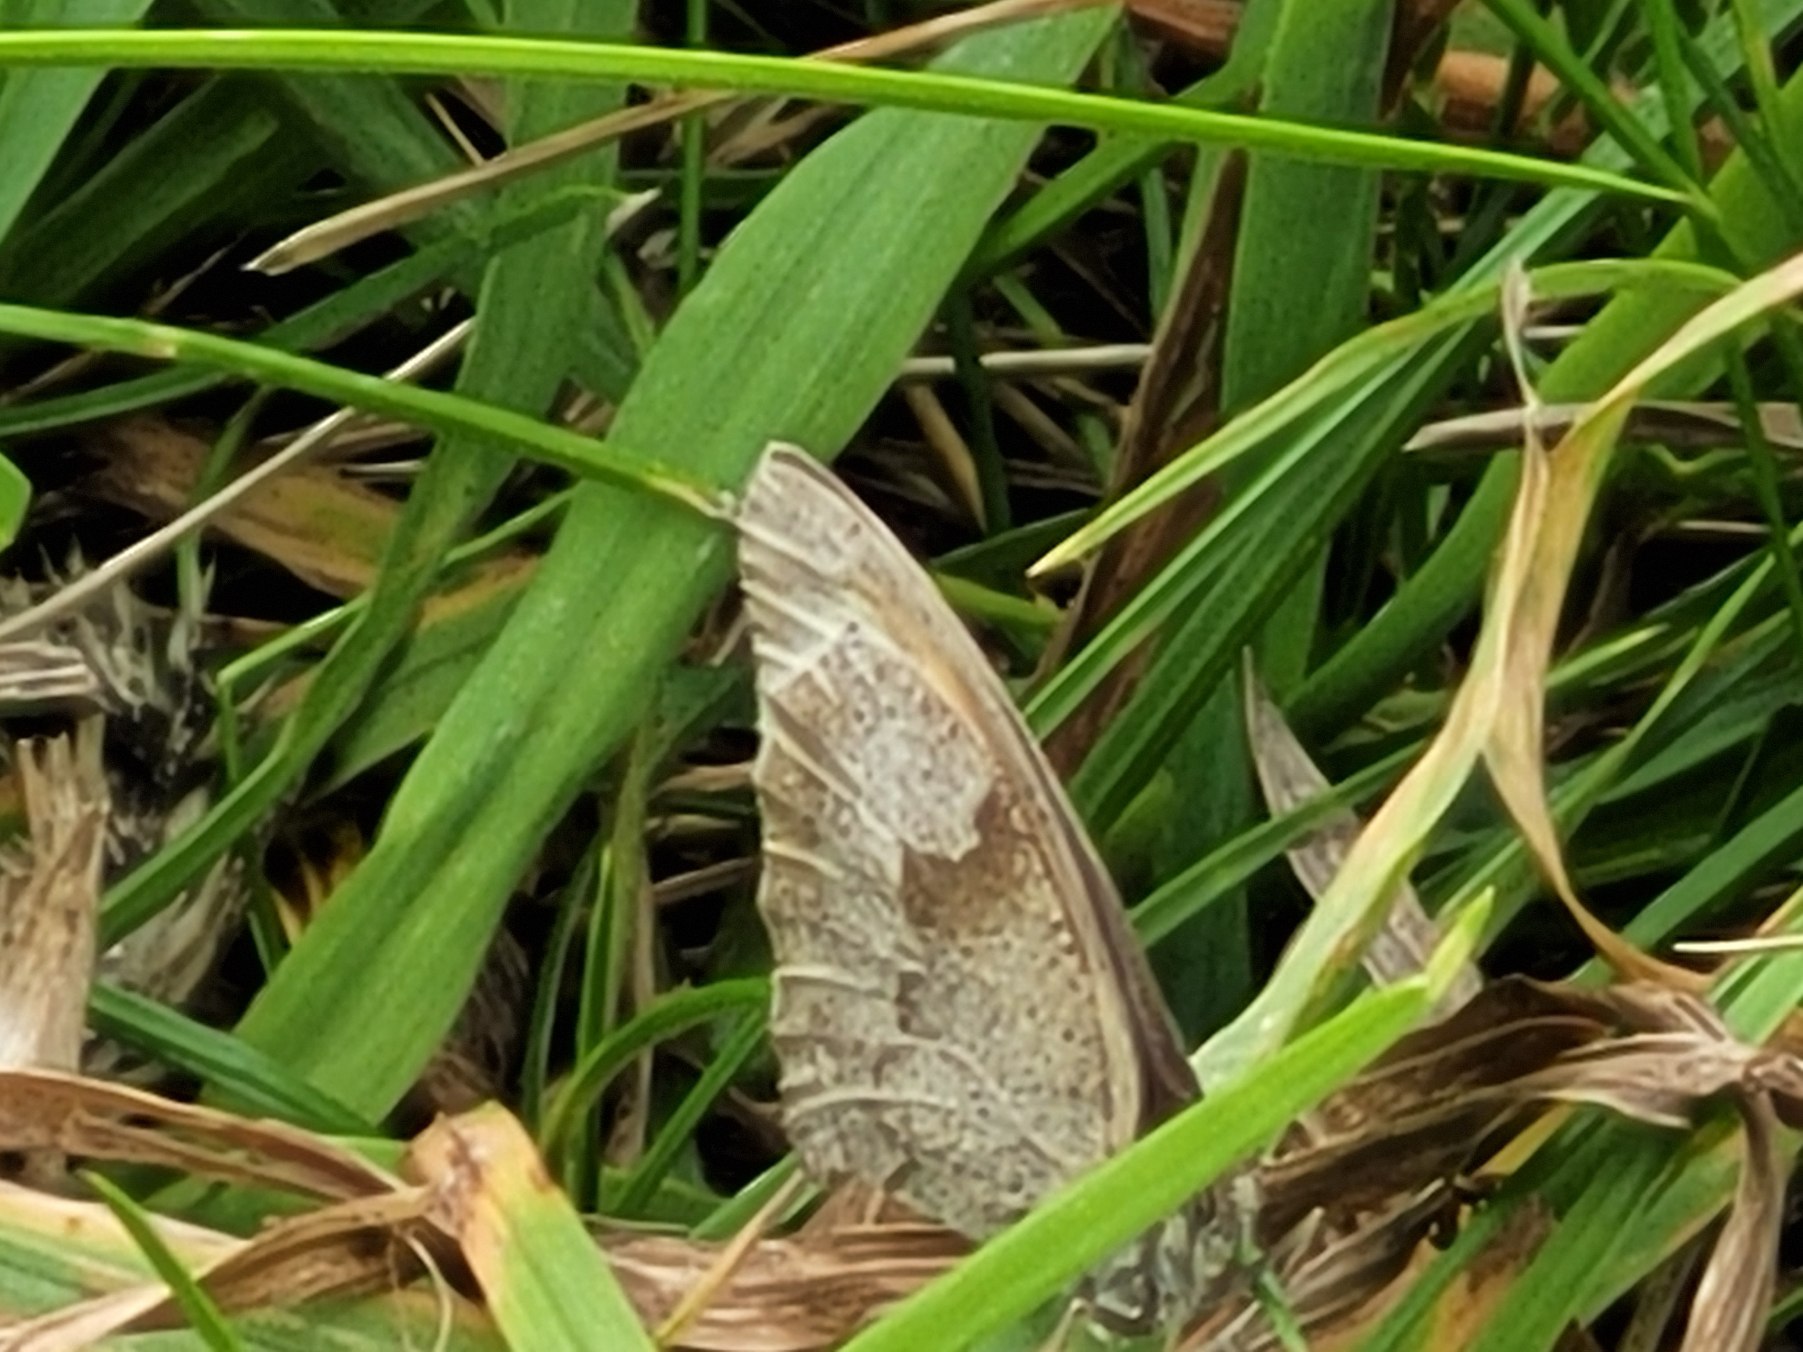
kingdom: Animalia
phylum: Arthropoda
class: Insecta
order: Lepidoptera
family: Nymphalidae
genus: Maniola
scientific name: Maniola jurtina
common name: Græsrandøje
